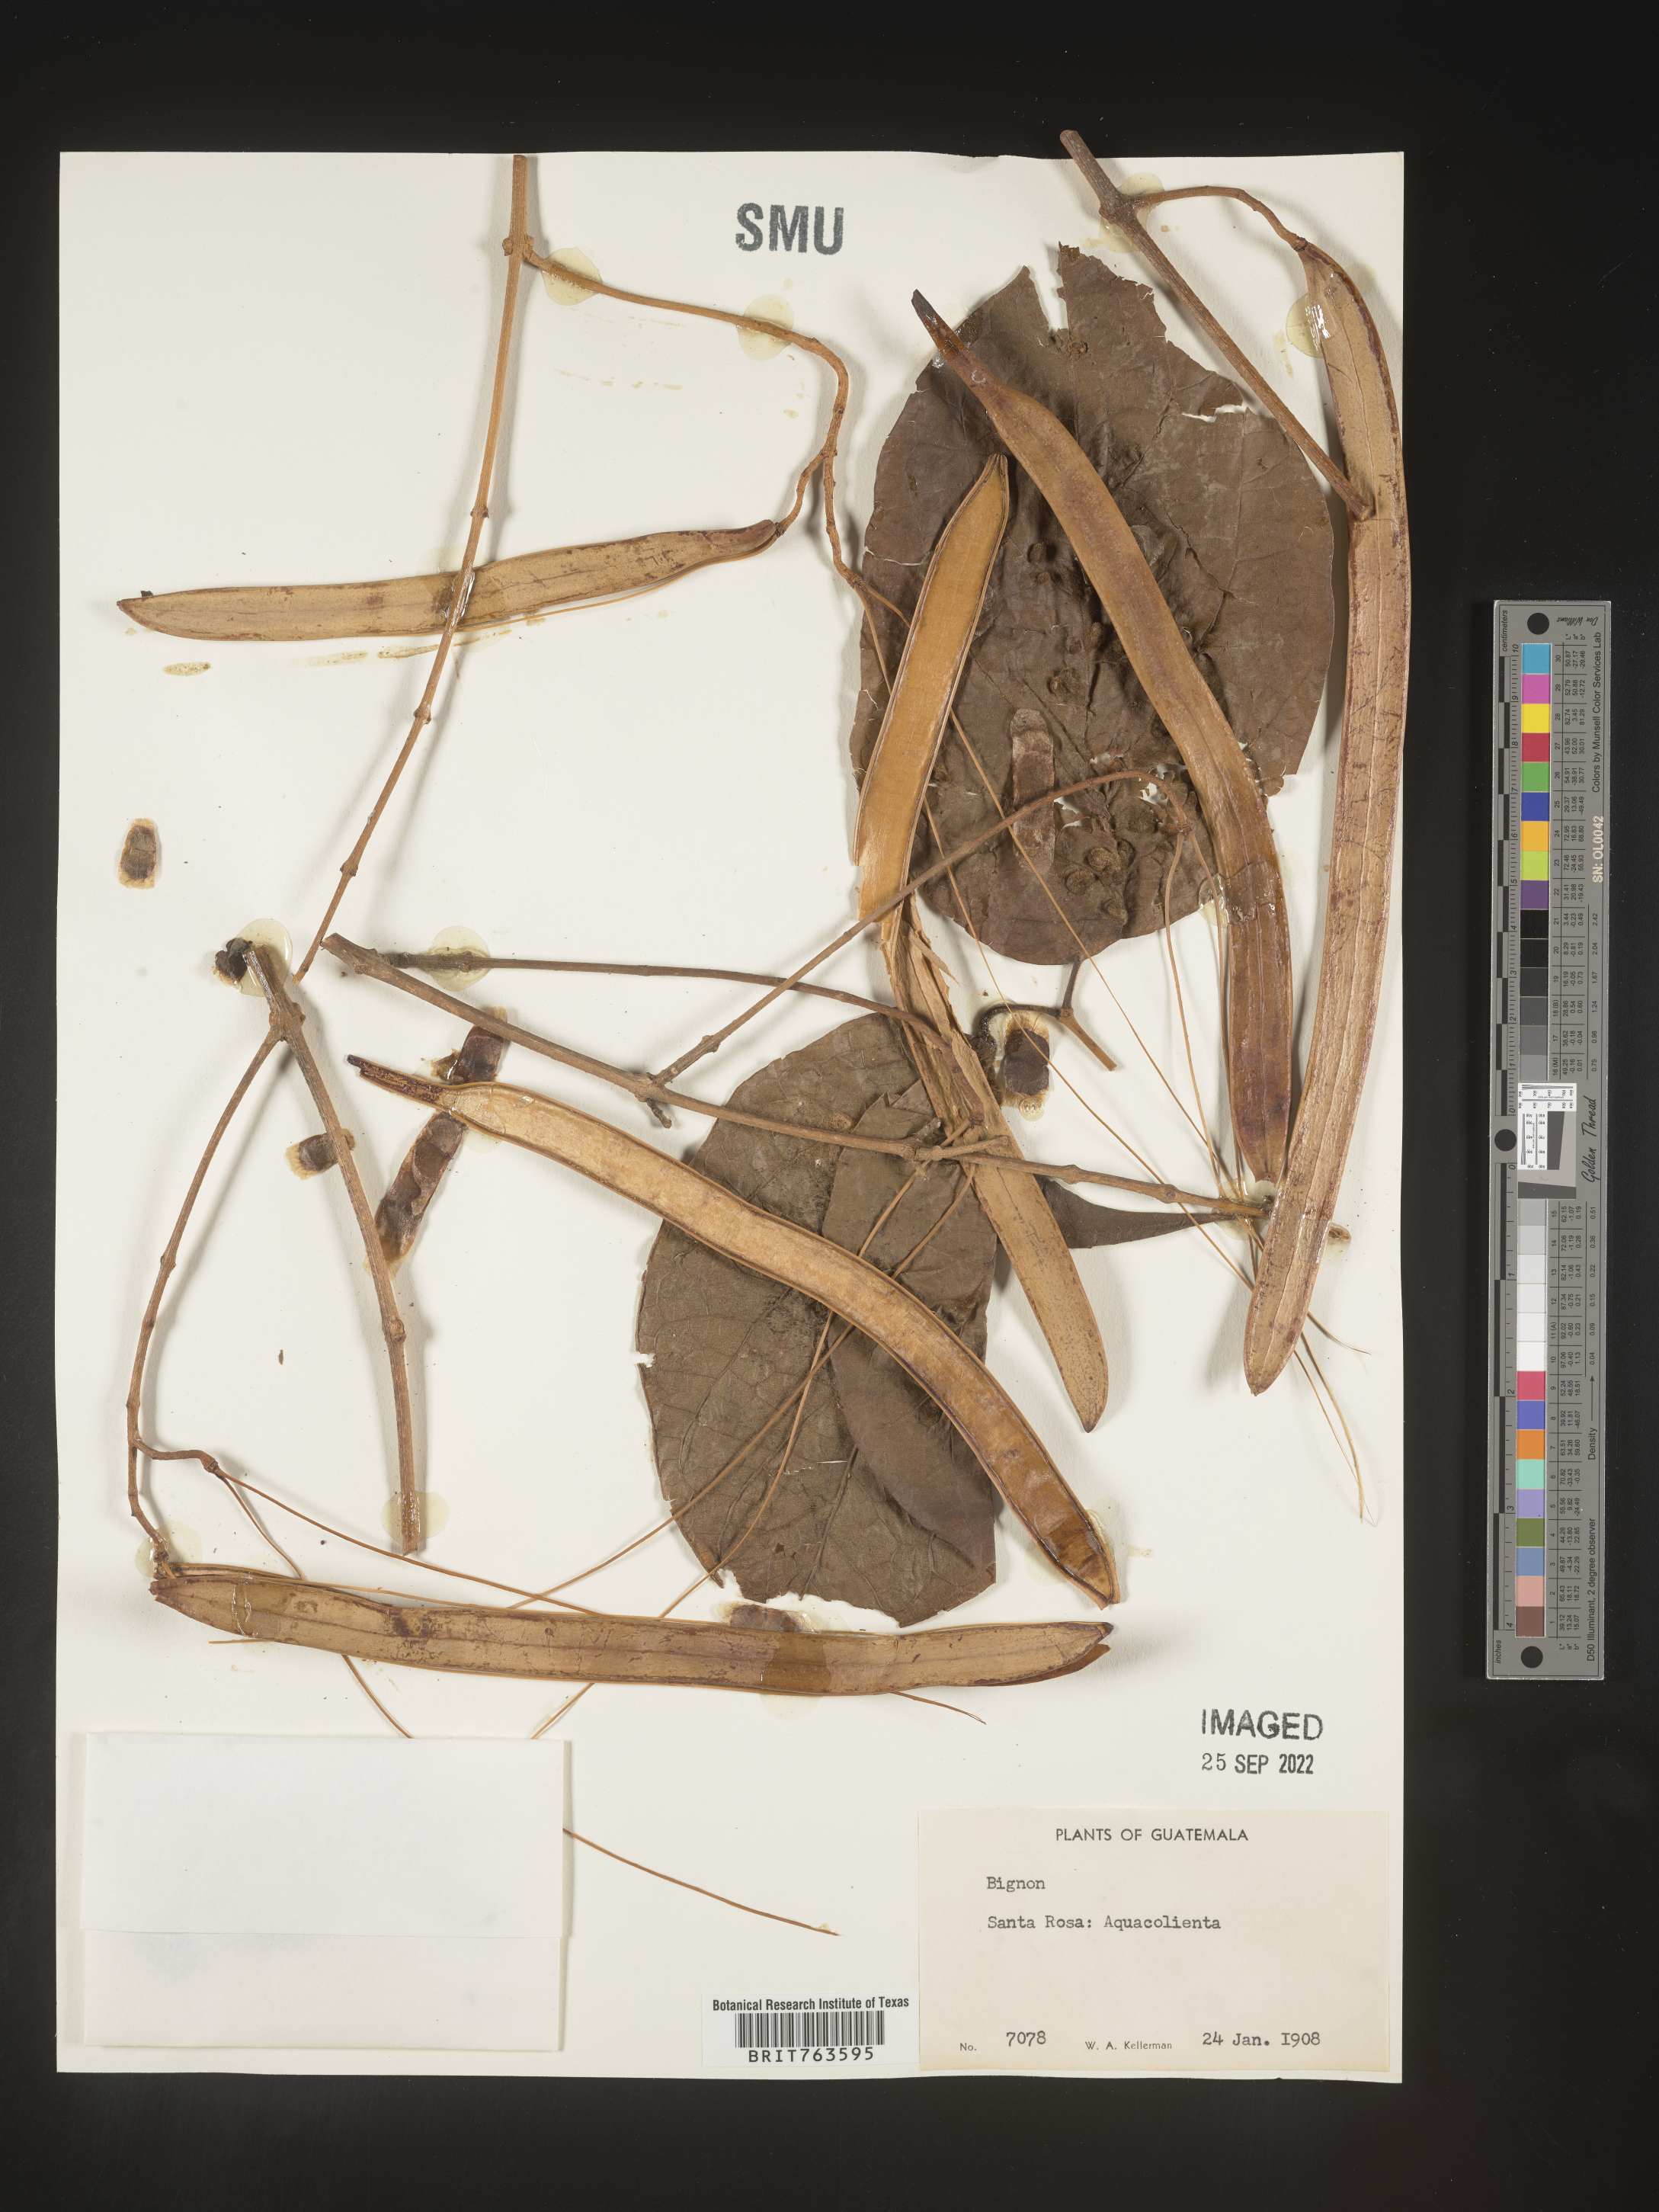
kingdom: Plantae
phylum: Tracheophyta
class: Magnoliopsida
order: Lamiales
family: Bignoniaceae
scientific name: Bignoniaceae
